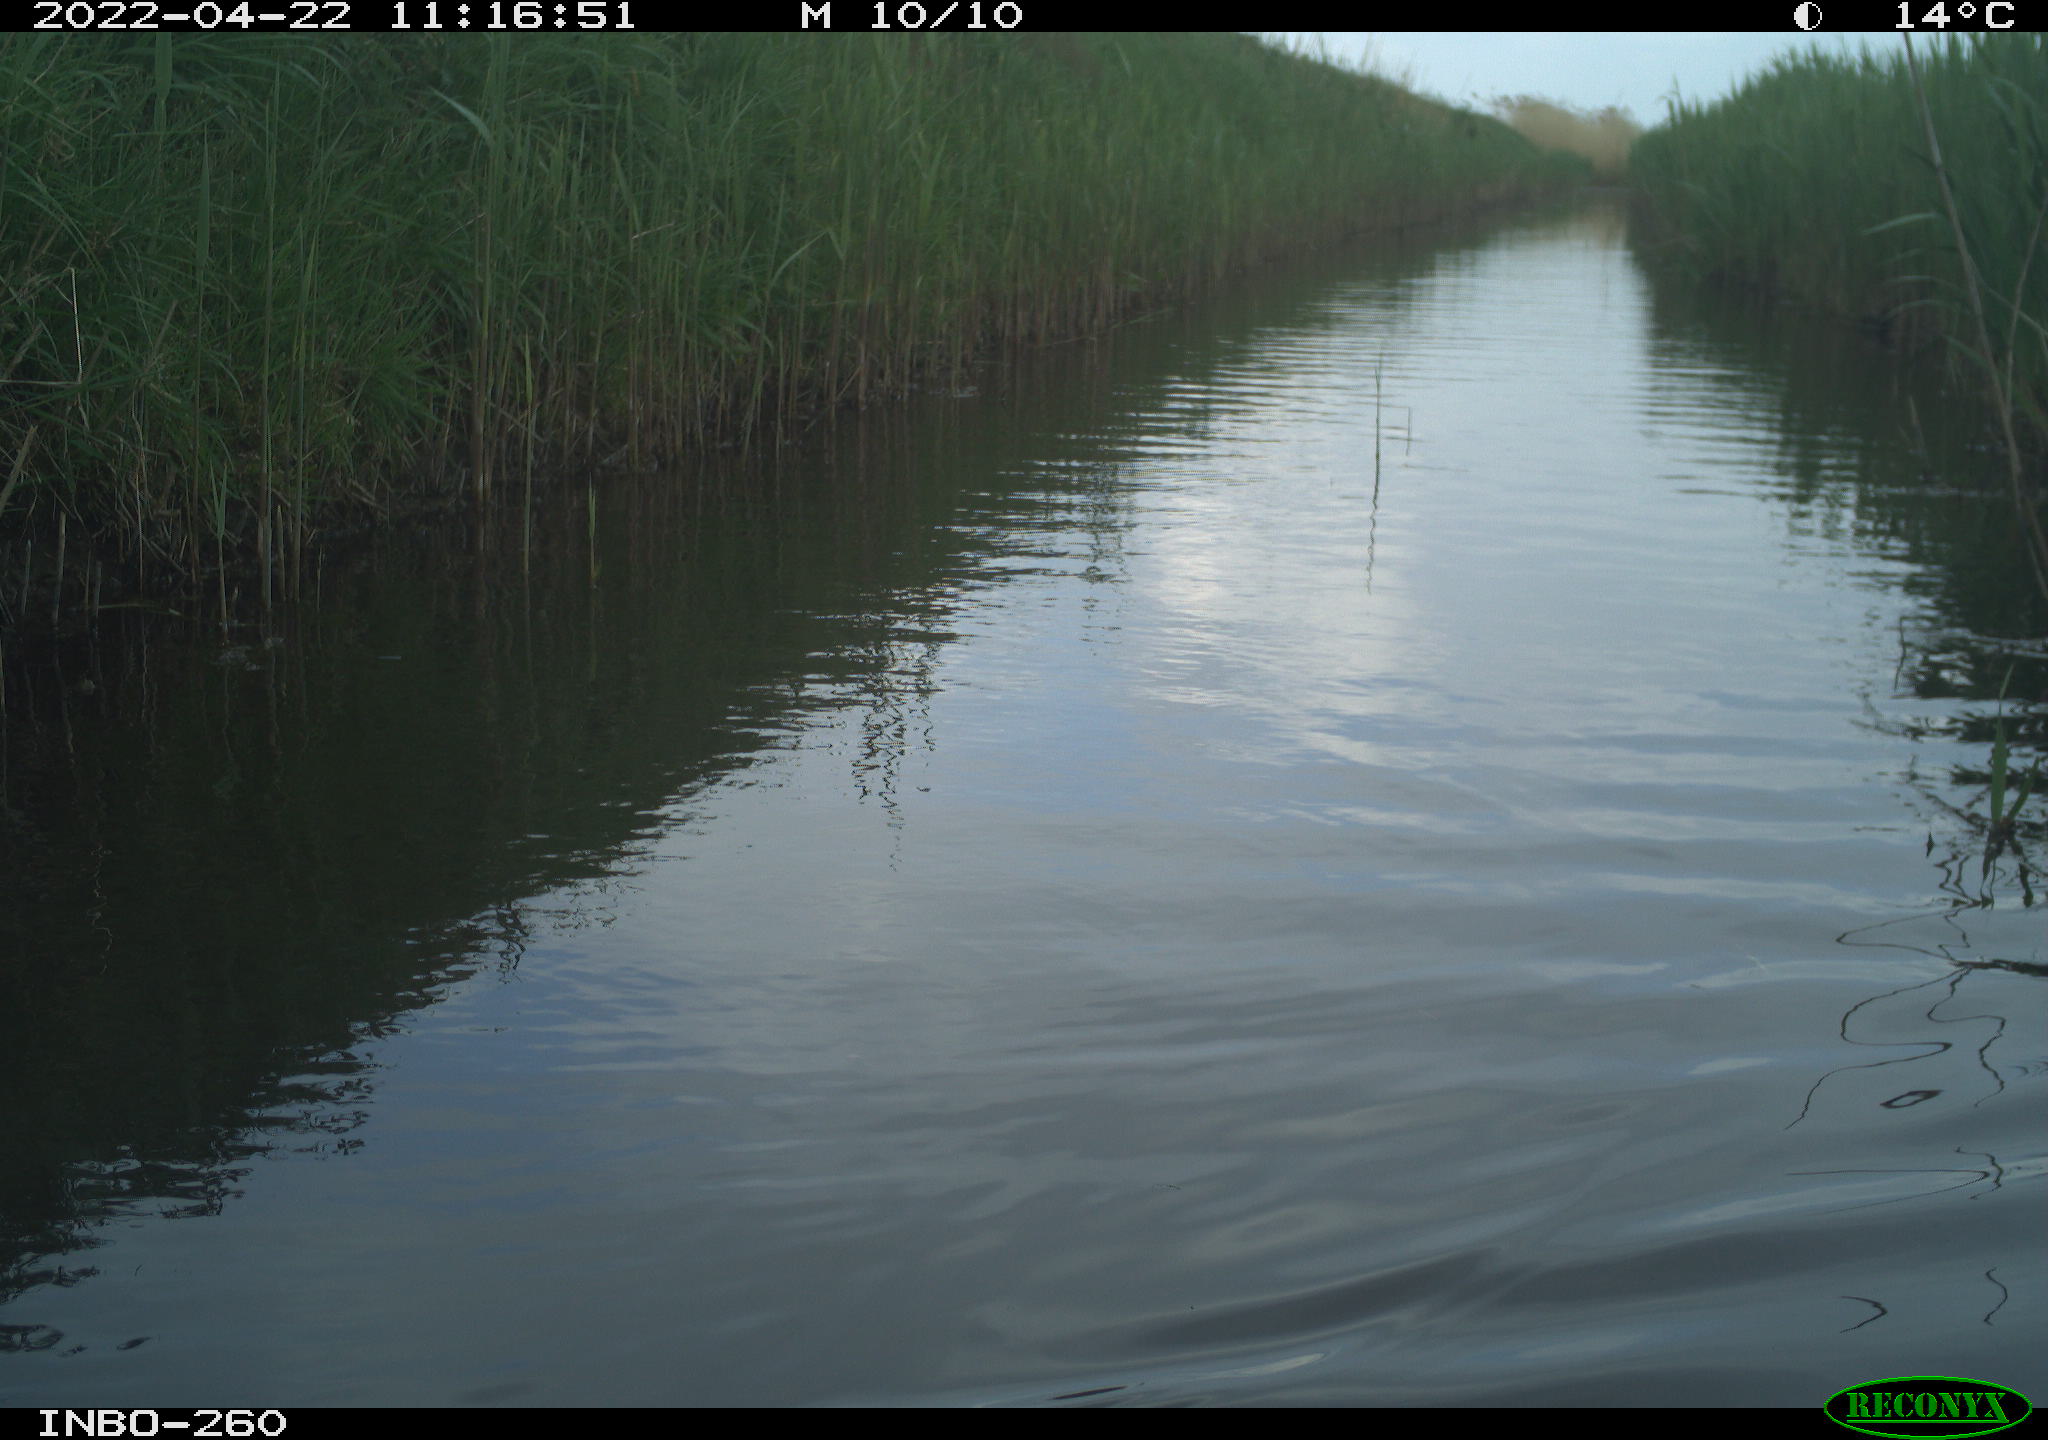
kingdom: Animalia
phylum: Chordata
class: Aves
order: Gruiformes
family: Rallidae
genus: Fulica
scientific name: Fulica atra
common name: Eurasian coot
